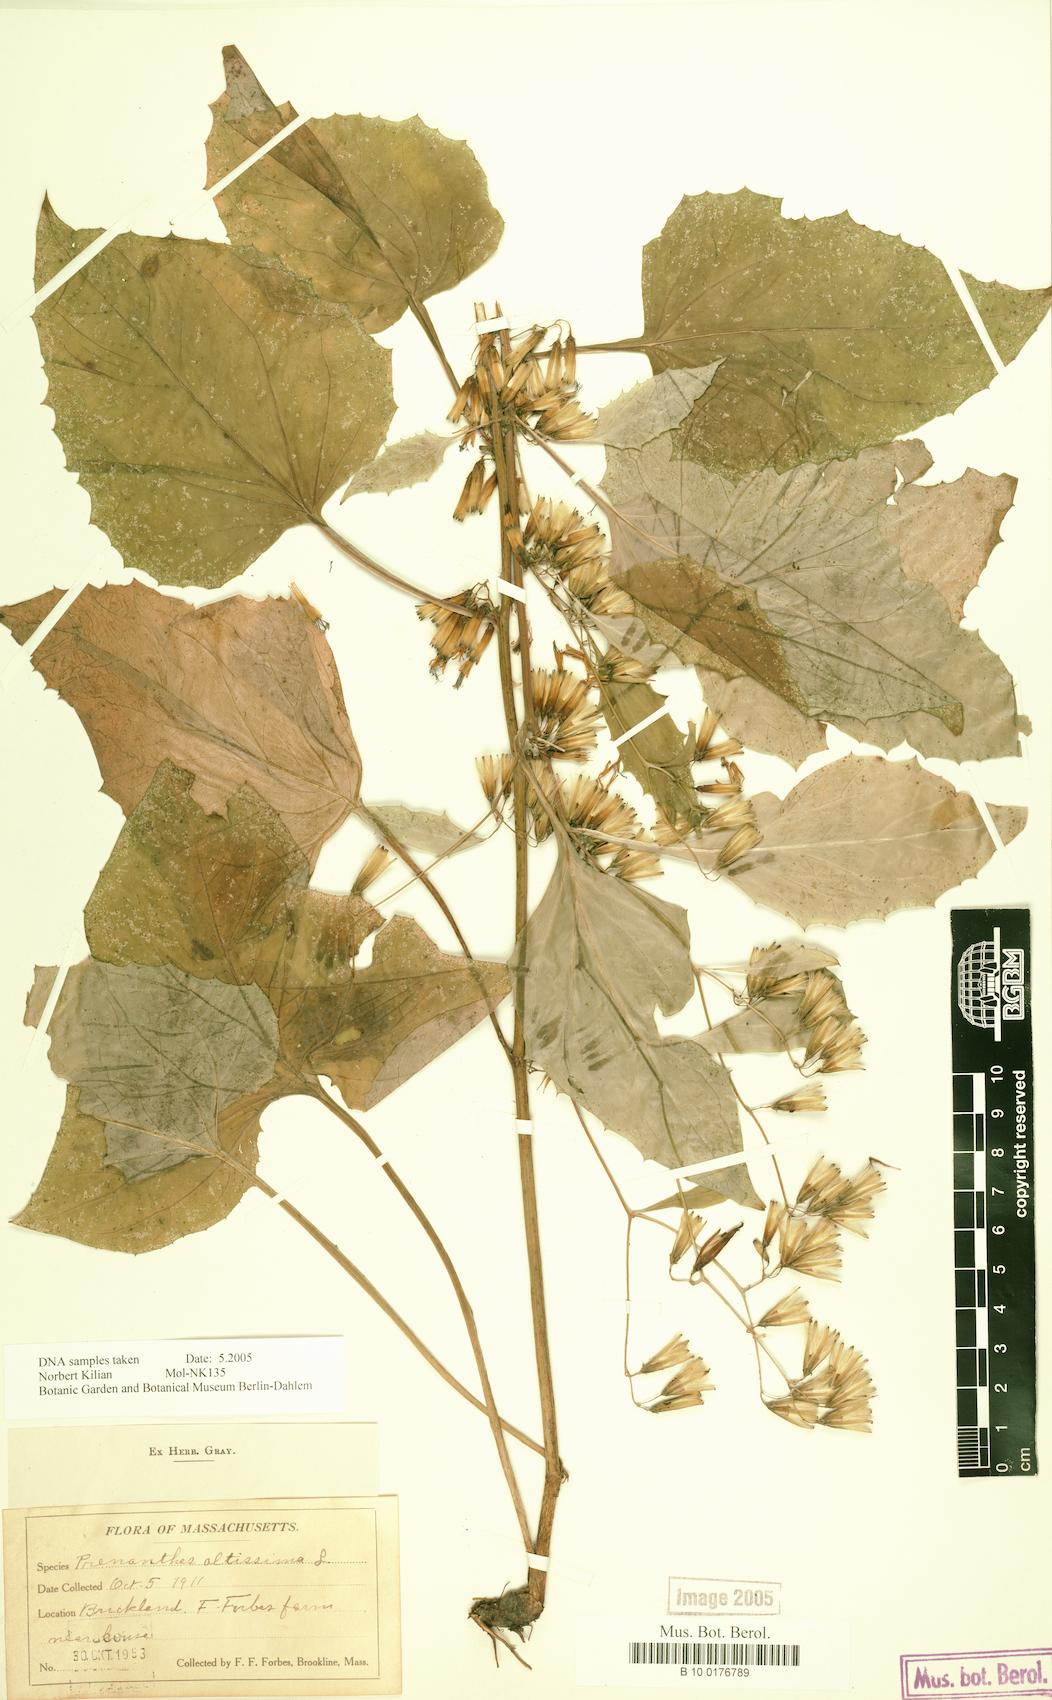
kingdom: Plantae
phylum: Tracheophyta
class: Magnoliopsida
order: Asterales
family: Asteraceae
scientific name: Asteraceae
